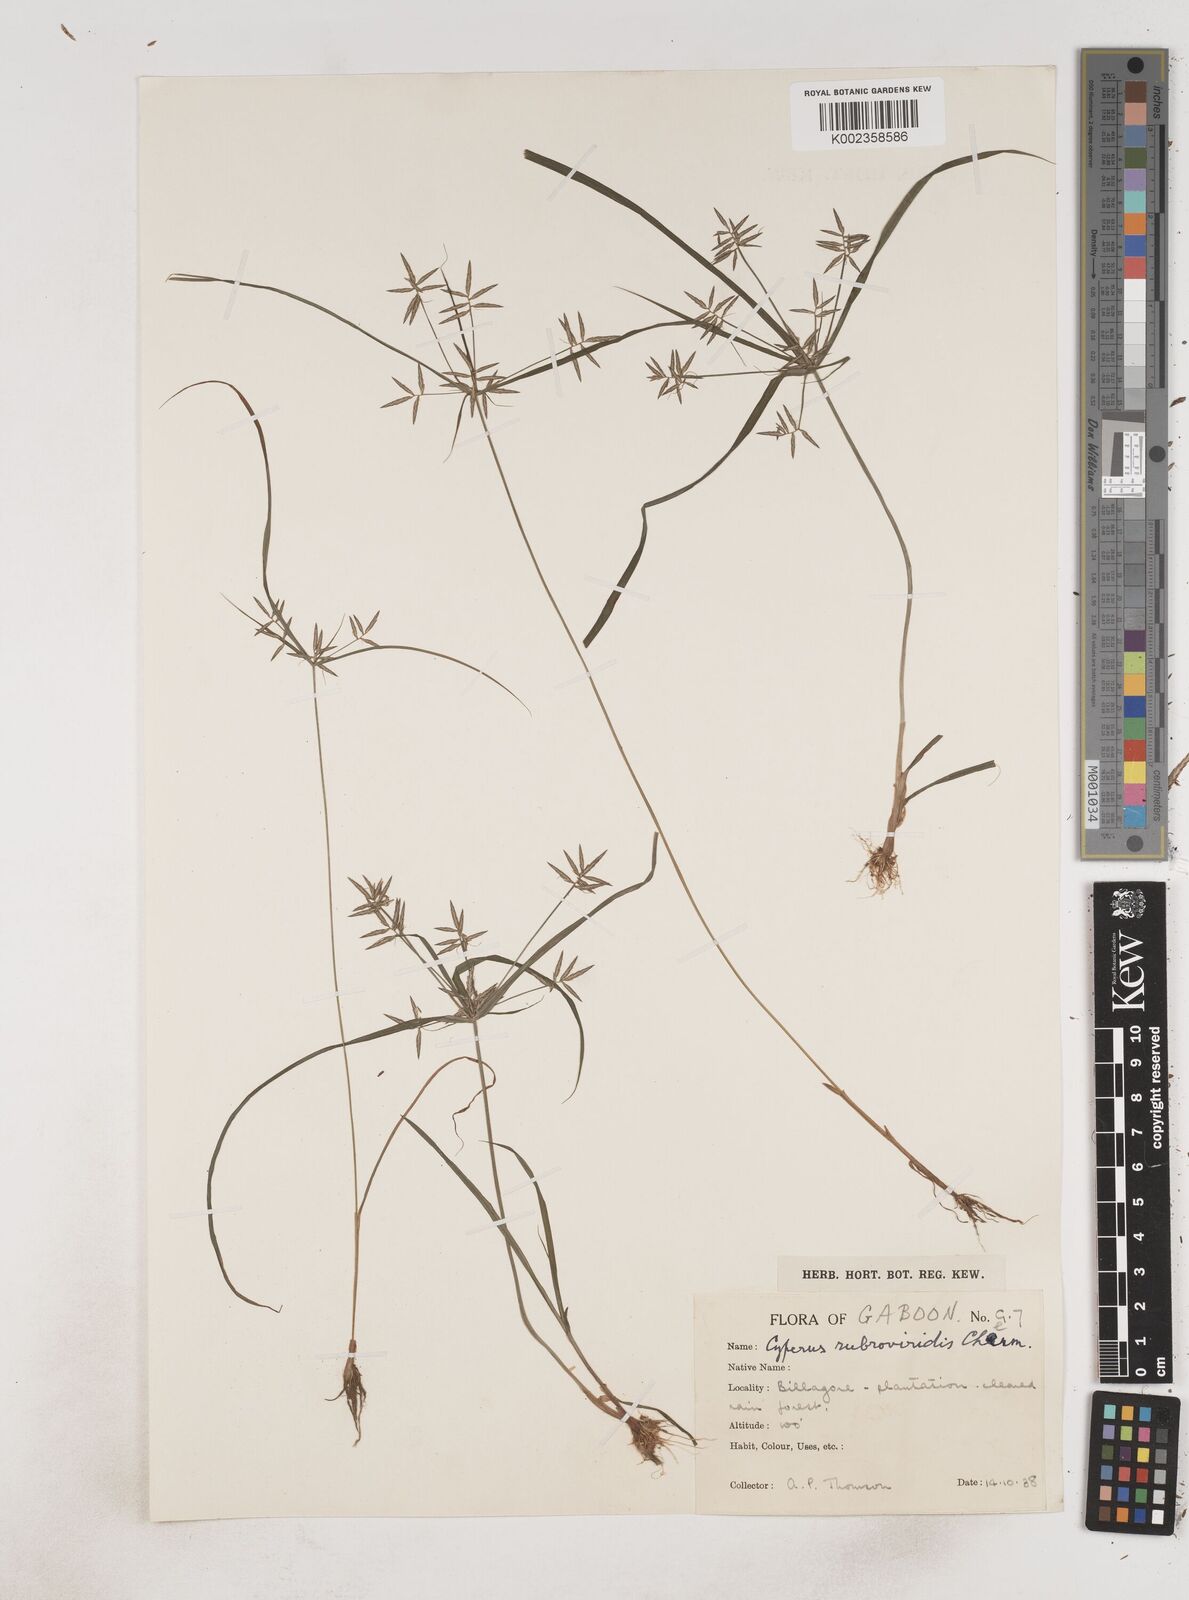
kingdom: Plantae
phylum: Tracheophyta
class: Liliopsida
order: Poales
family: Cyperaceae
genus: Cyperus
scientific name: Cyperus zollingeri
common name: Roadside flatsedge
